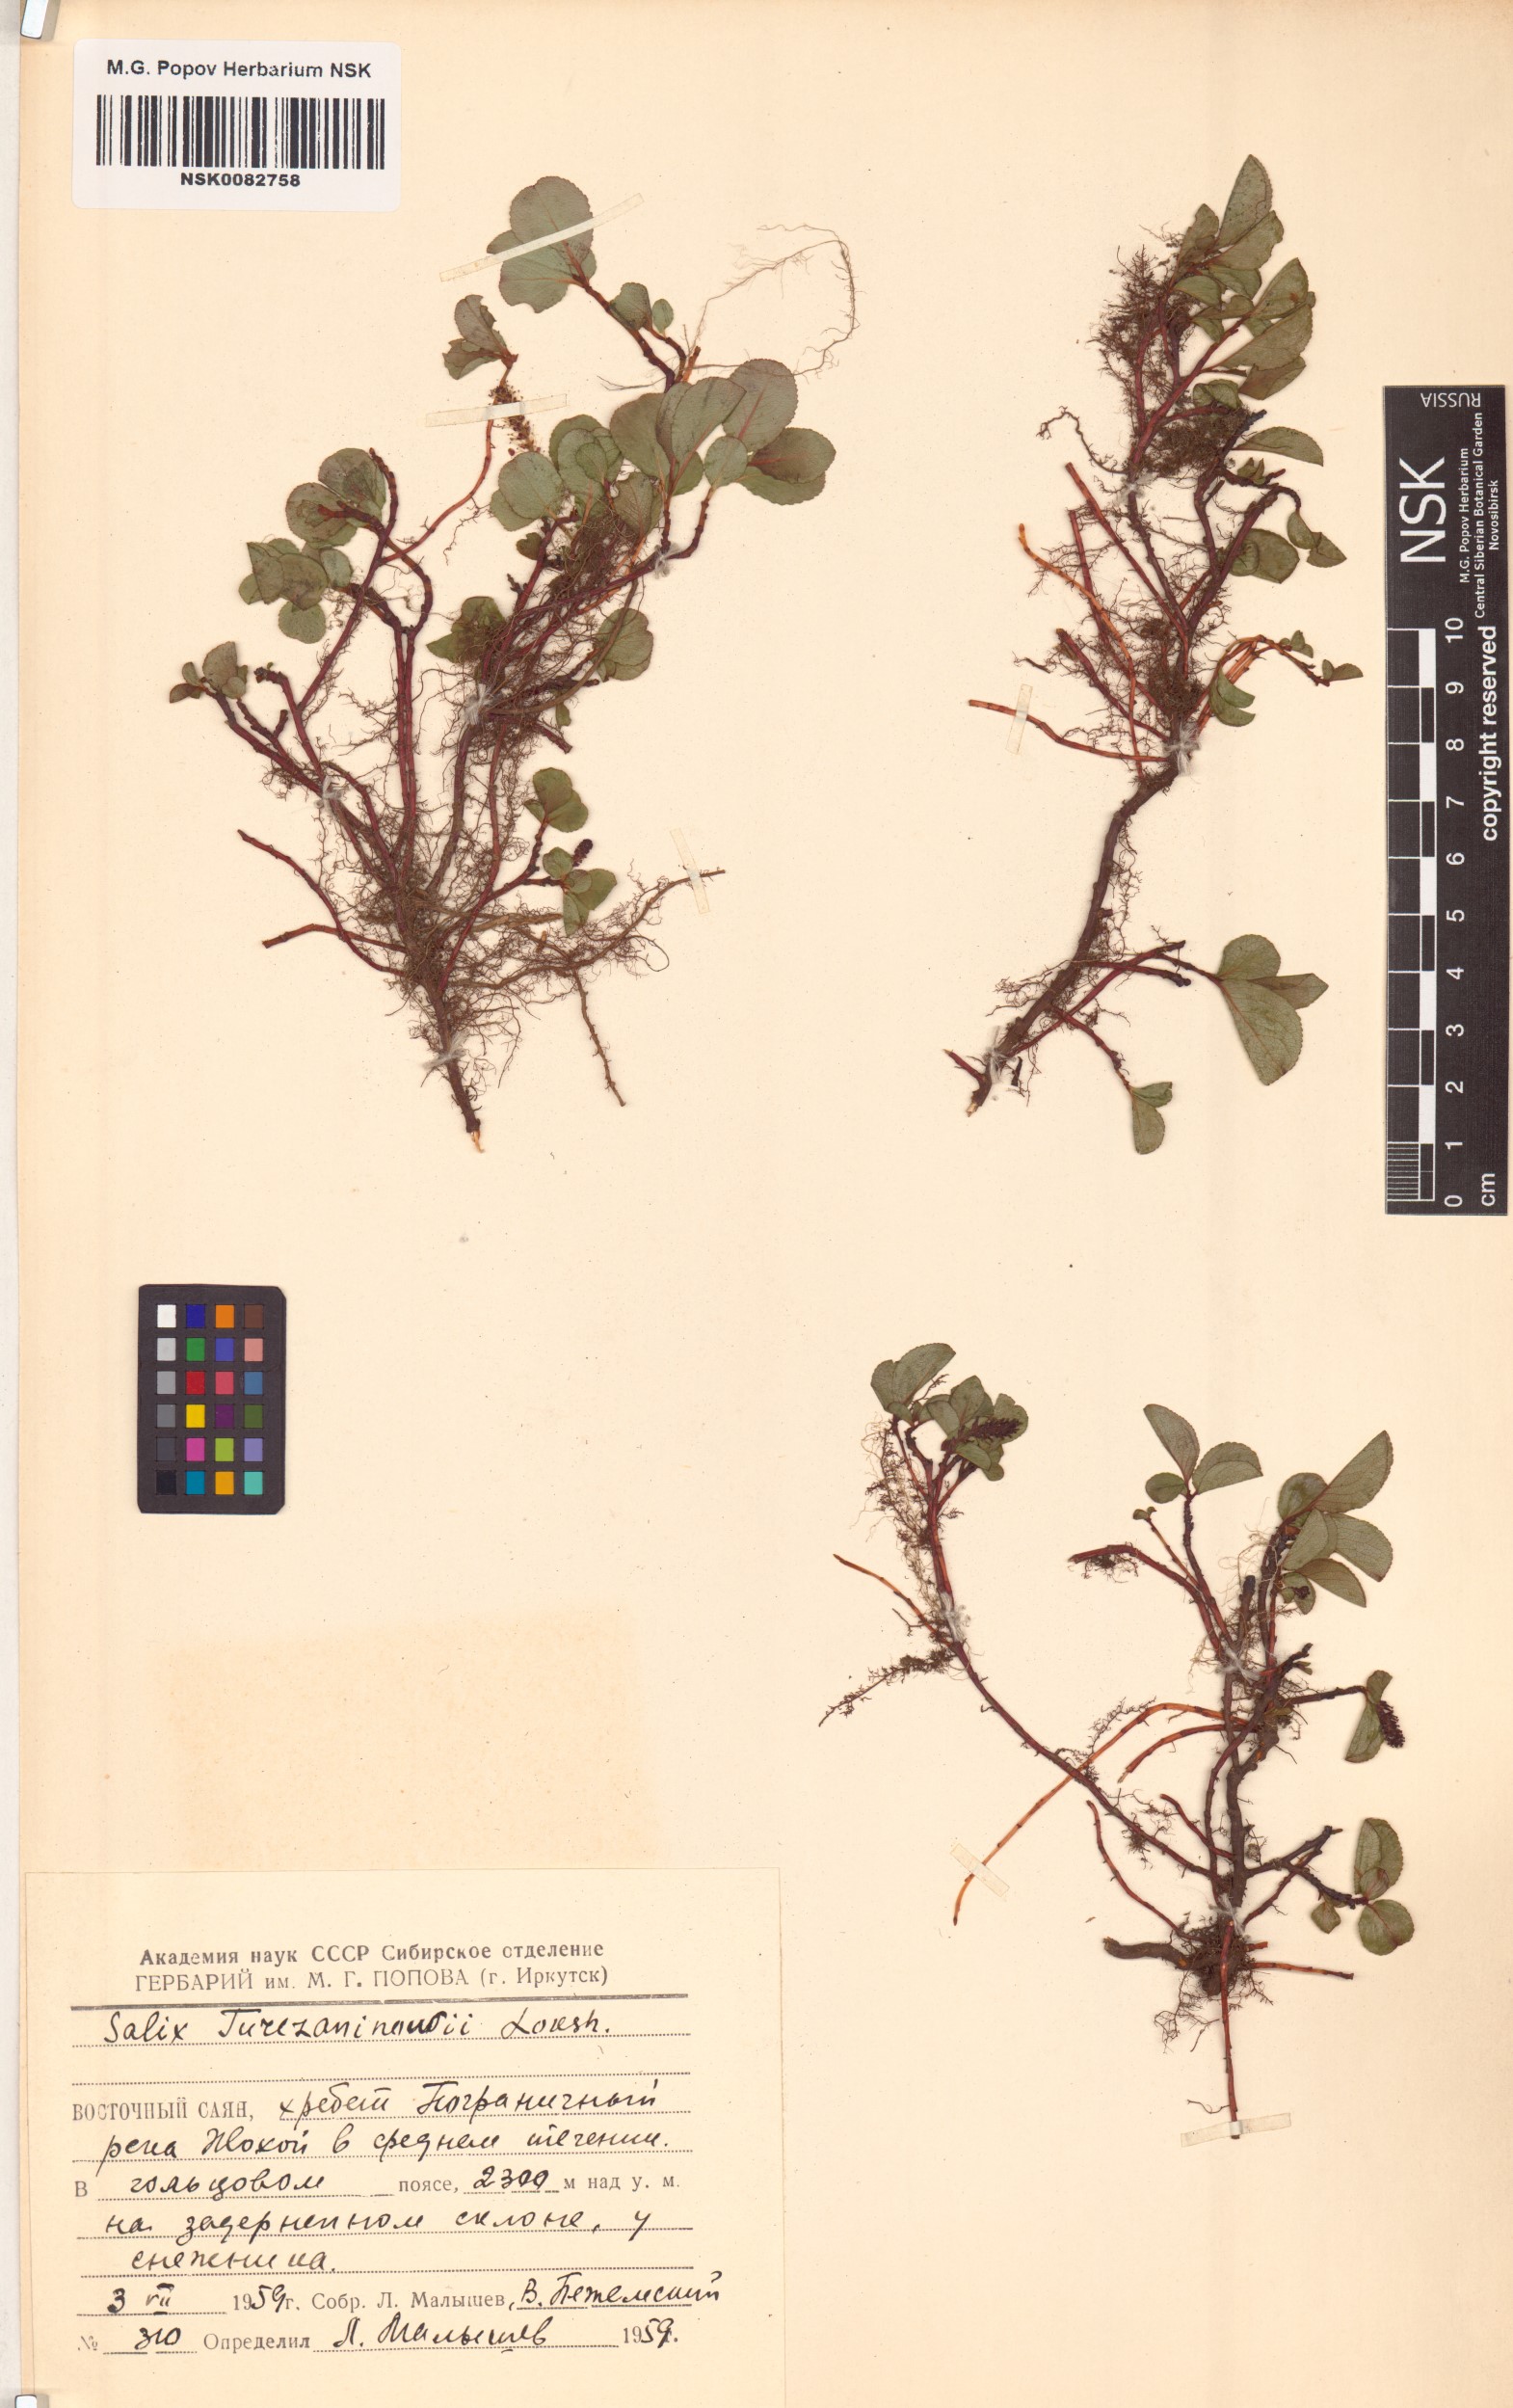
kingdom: Plantae
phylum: Tracheophyta
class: Magnoliopsida
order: Malpighiales
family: Salicaceae
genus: Salix
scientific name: Salix turczaninowii
